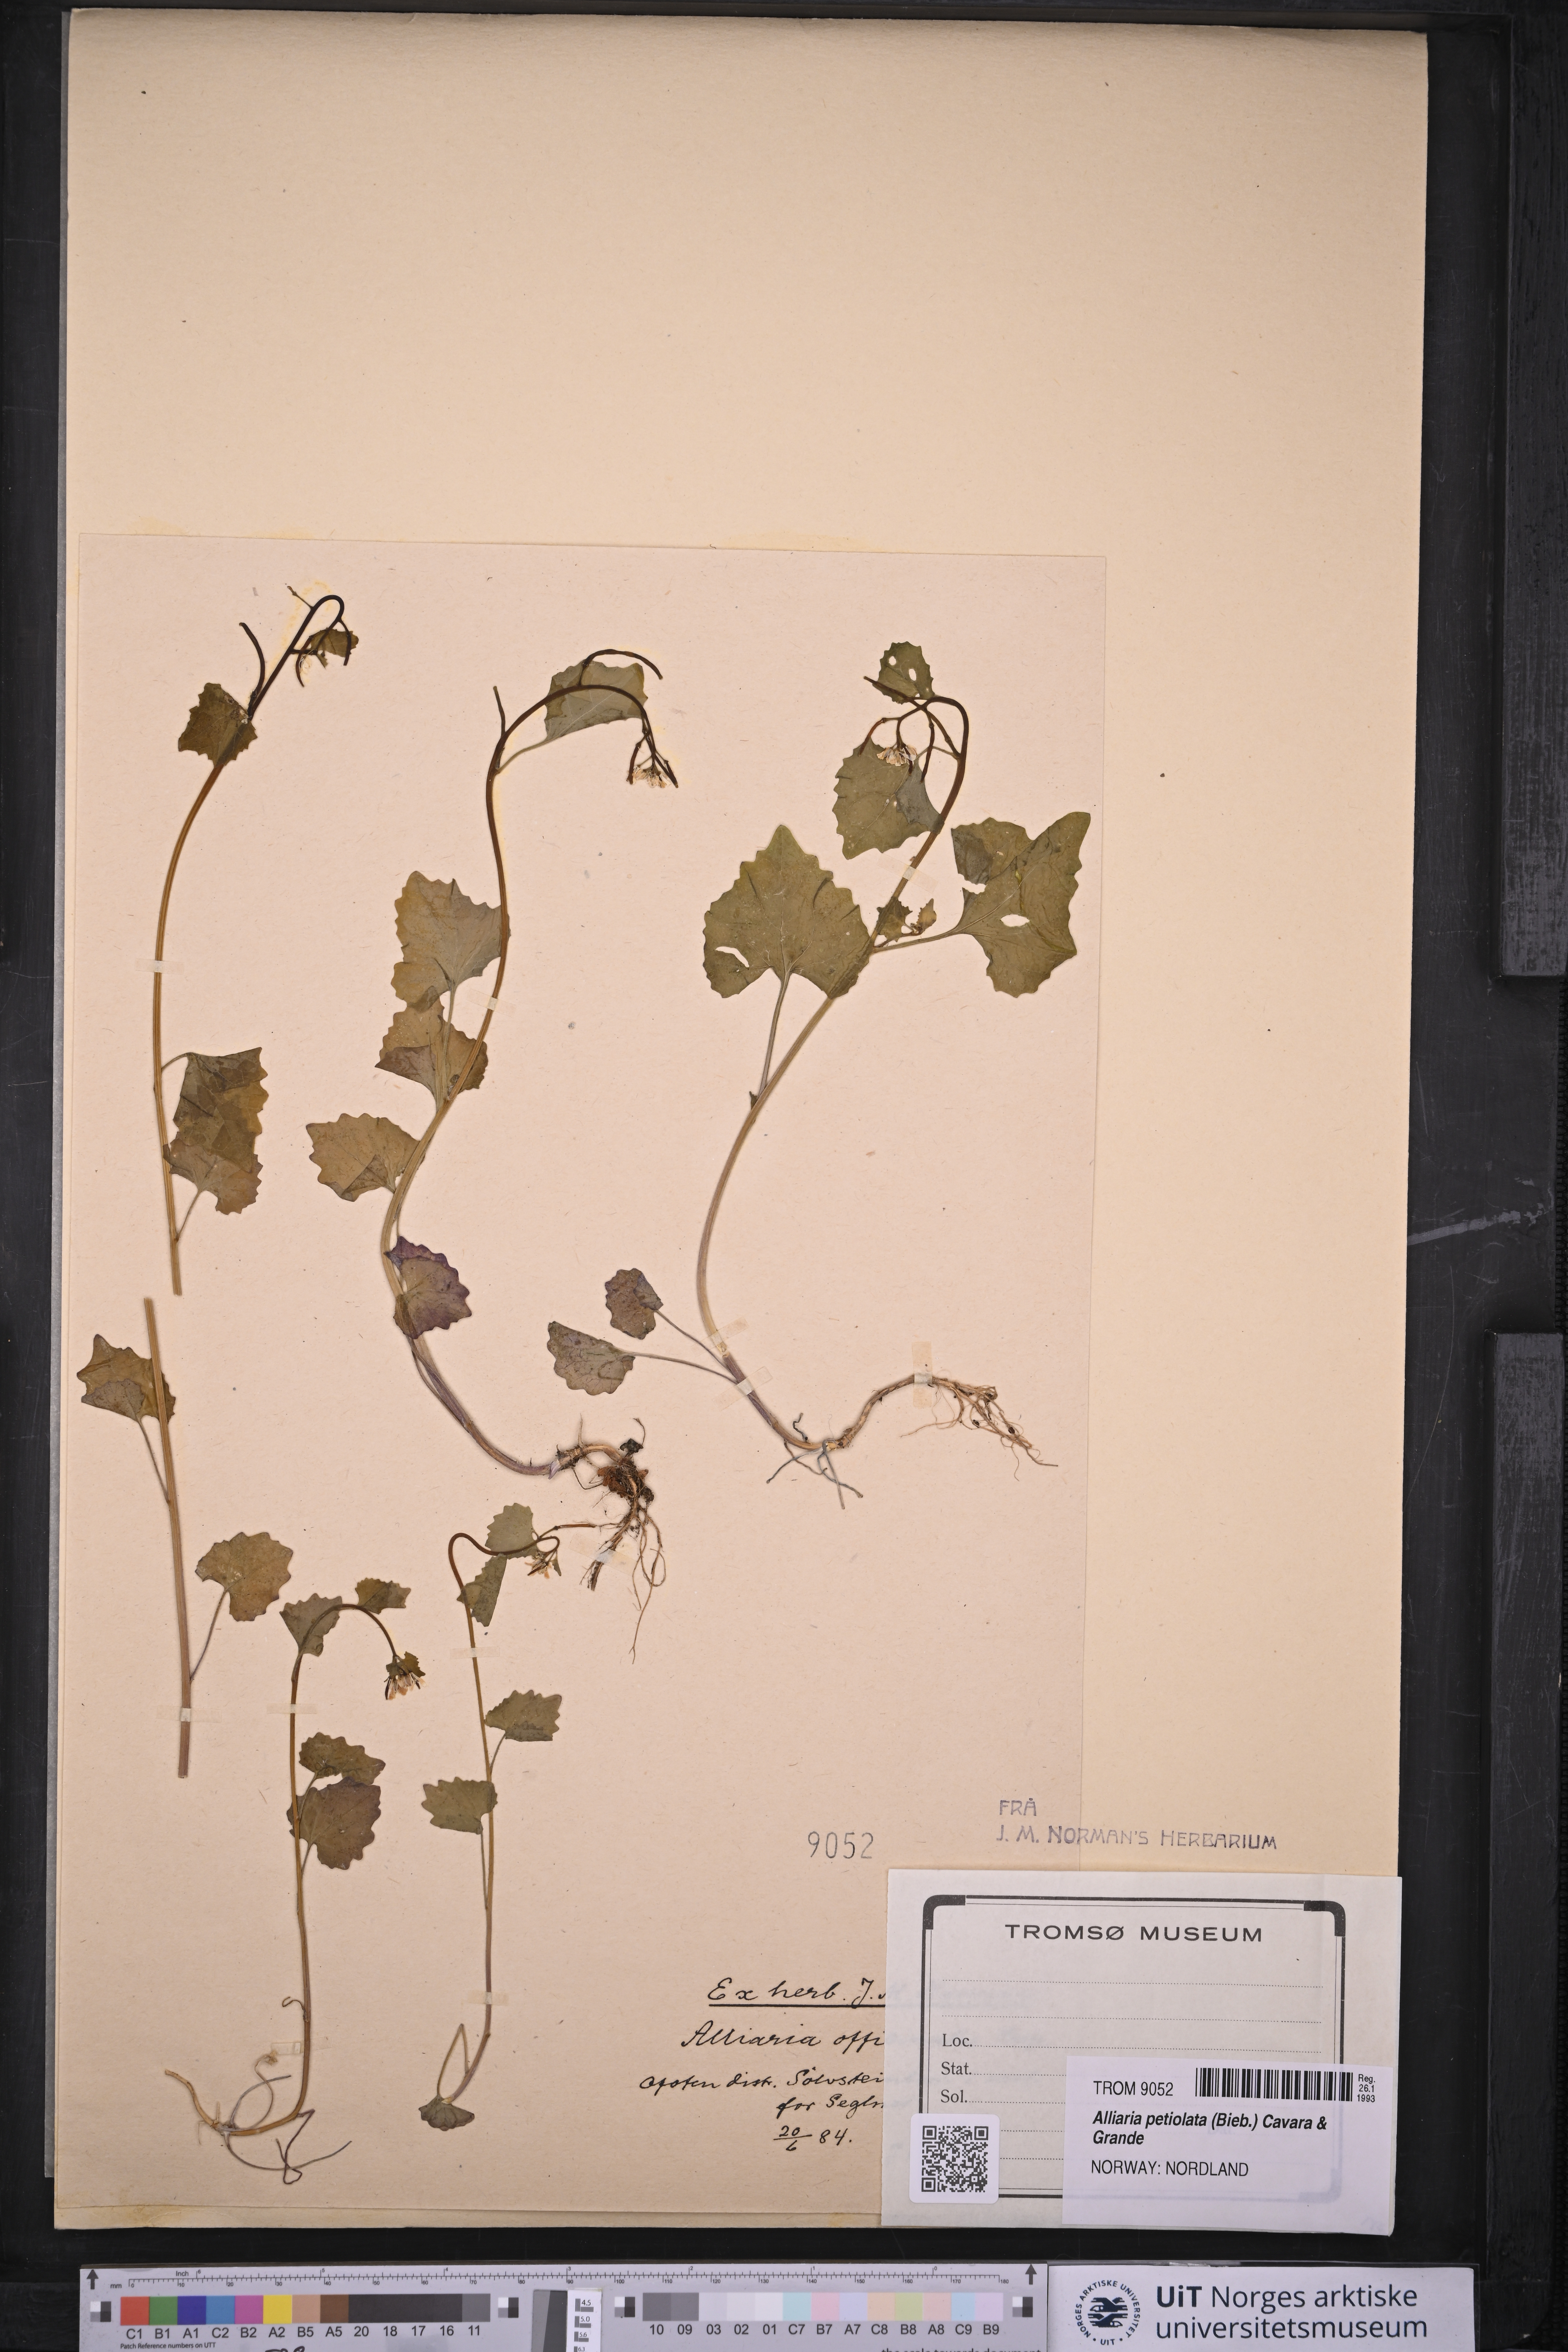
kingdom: Plantae
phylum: Tracheophyta
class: Magnoliopsida
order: Brassicales
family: Brassicaceae
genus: Alliaria
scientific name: Alliaria petiolata
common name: Garlic mustard
